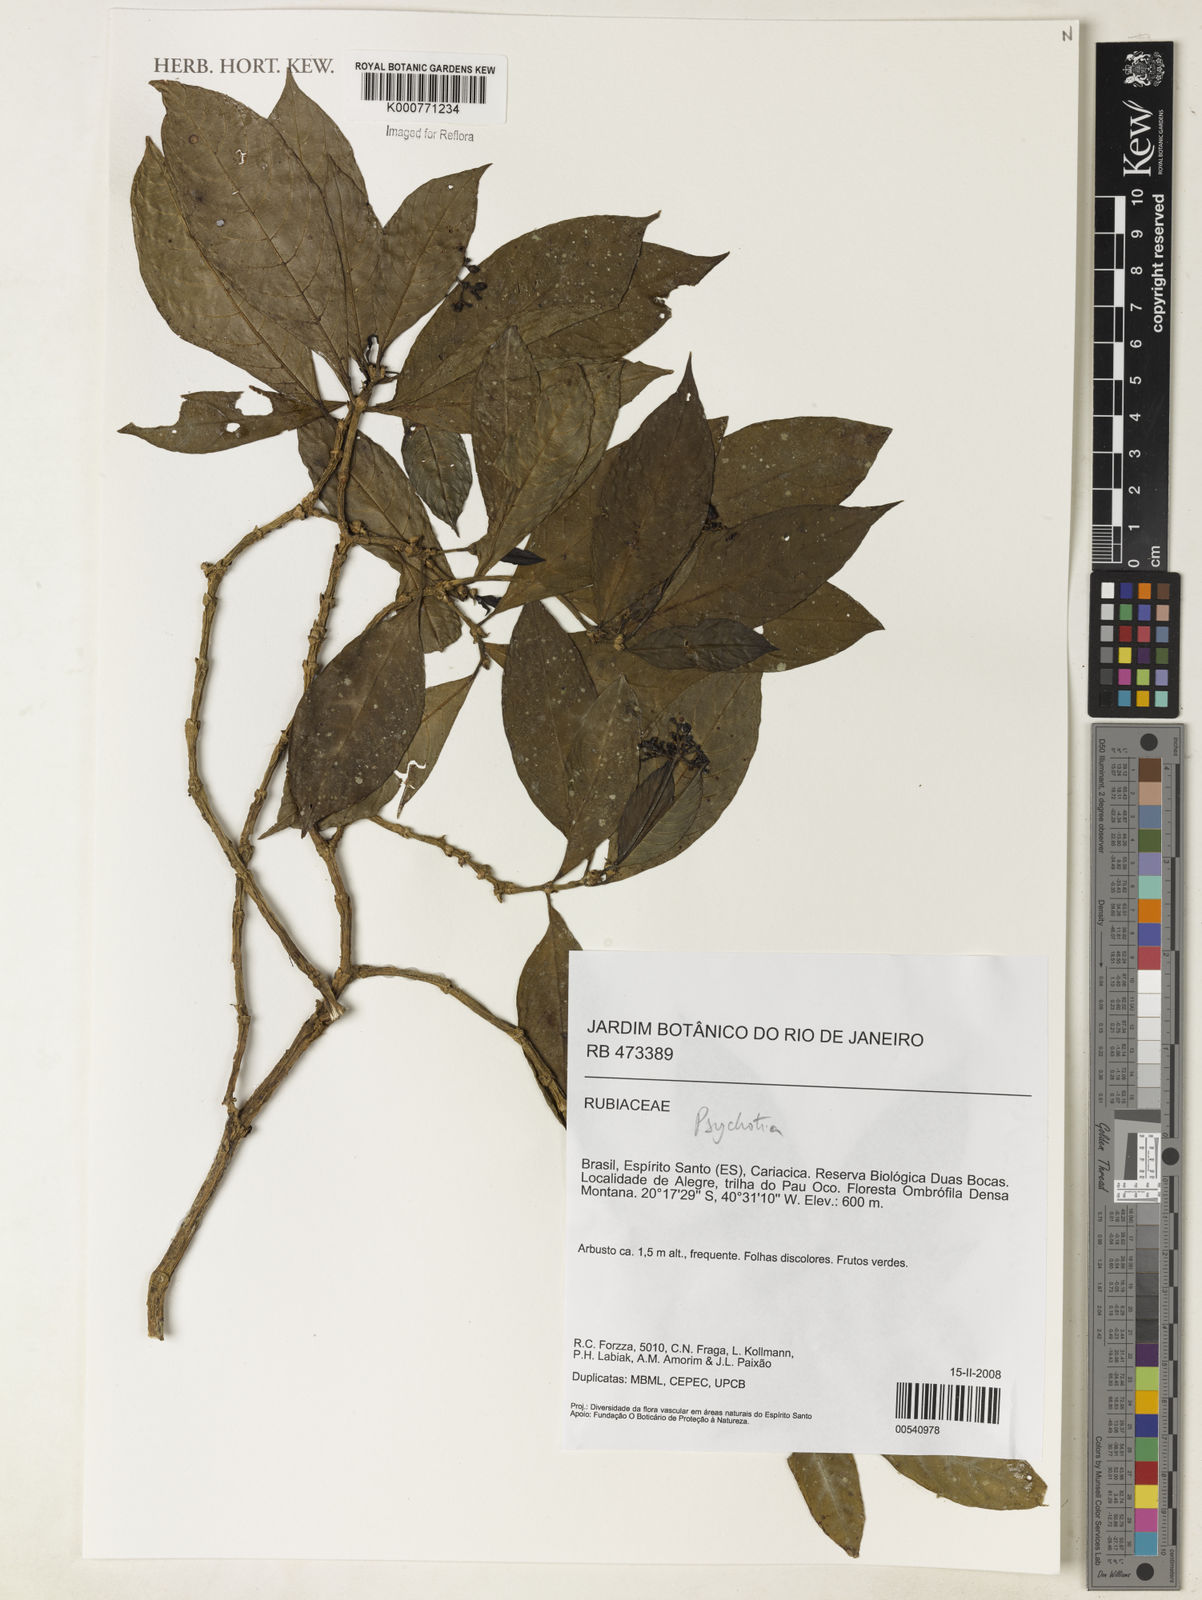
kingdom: Plantae
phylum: Tracheophyta
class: Magnoliopsida
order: Gentianales
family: Rubiaceae
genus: Psychotria
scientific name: Psychotria
